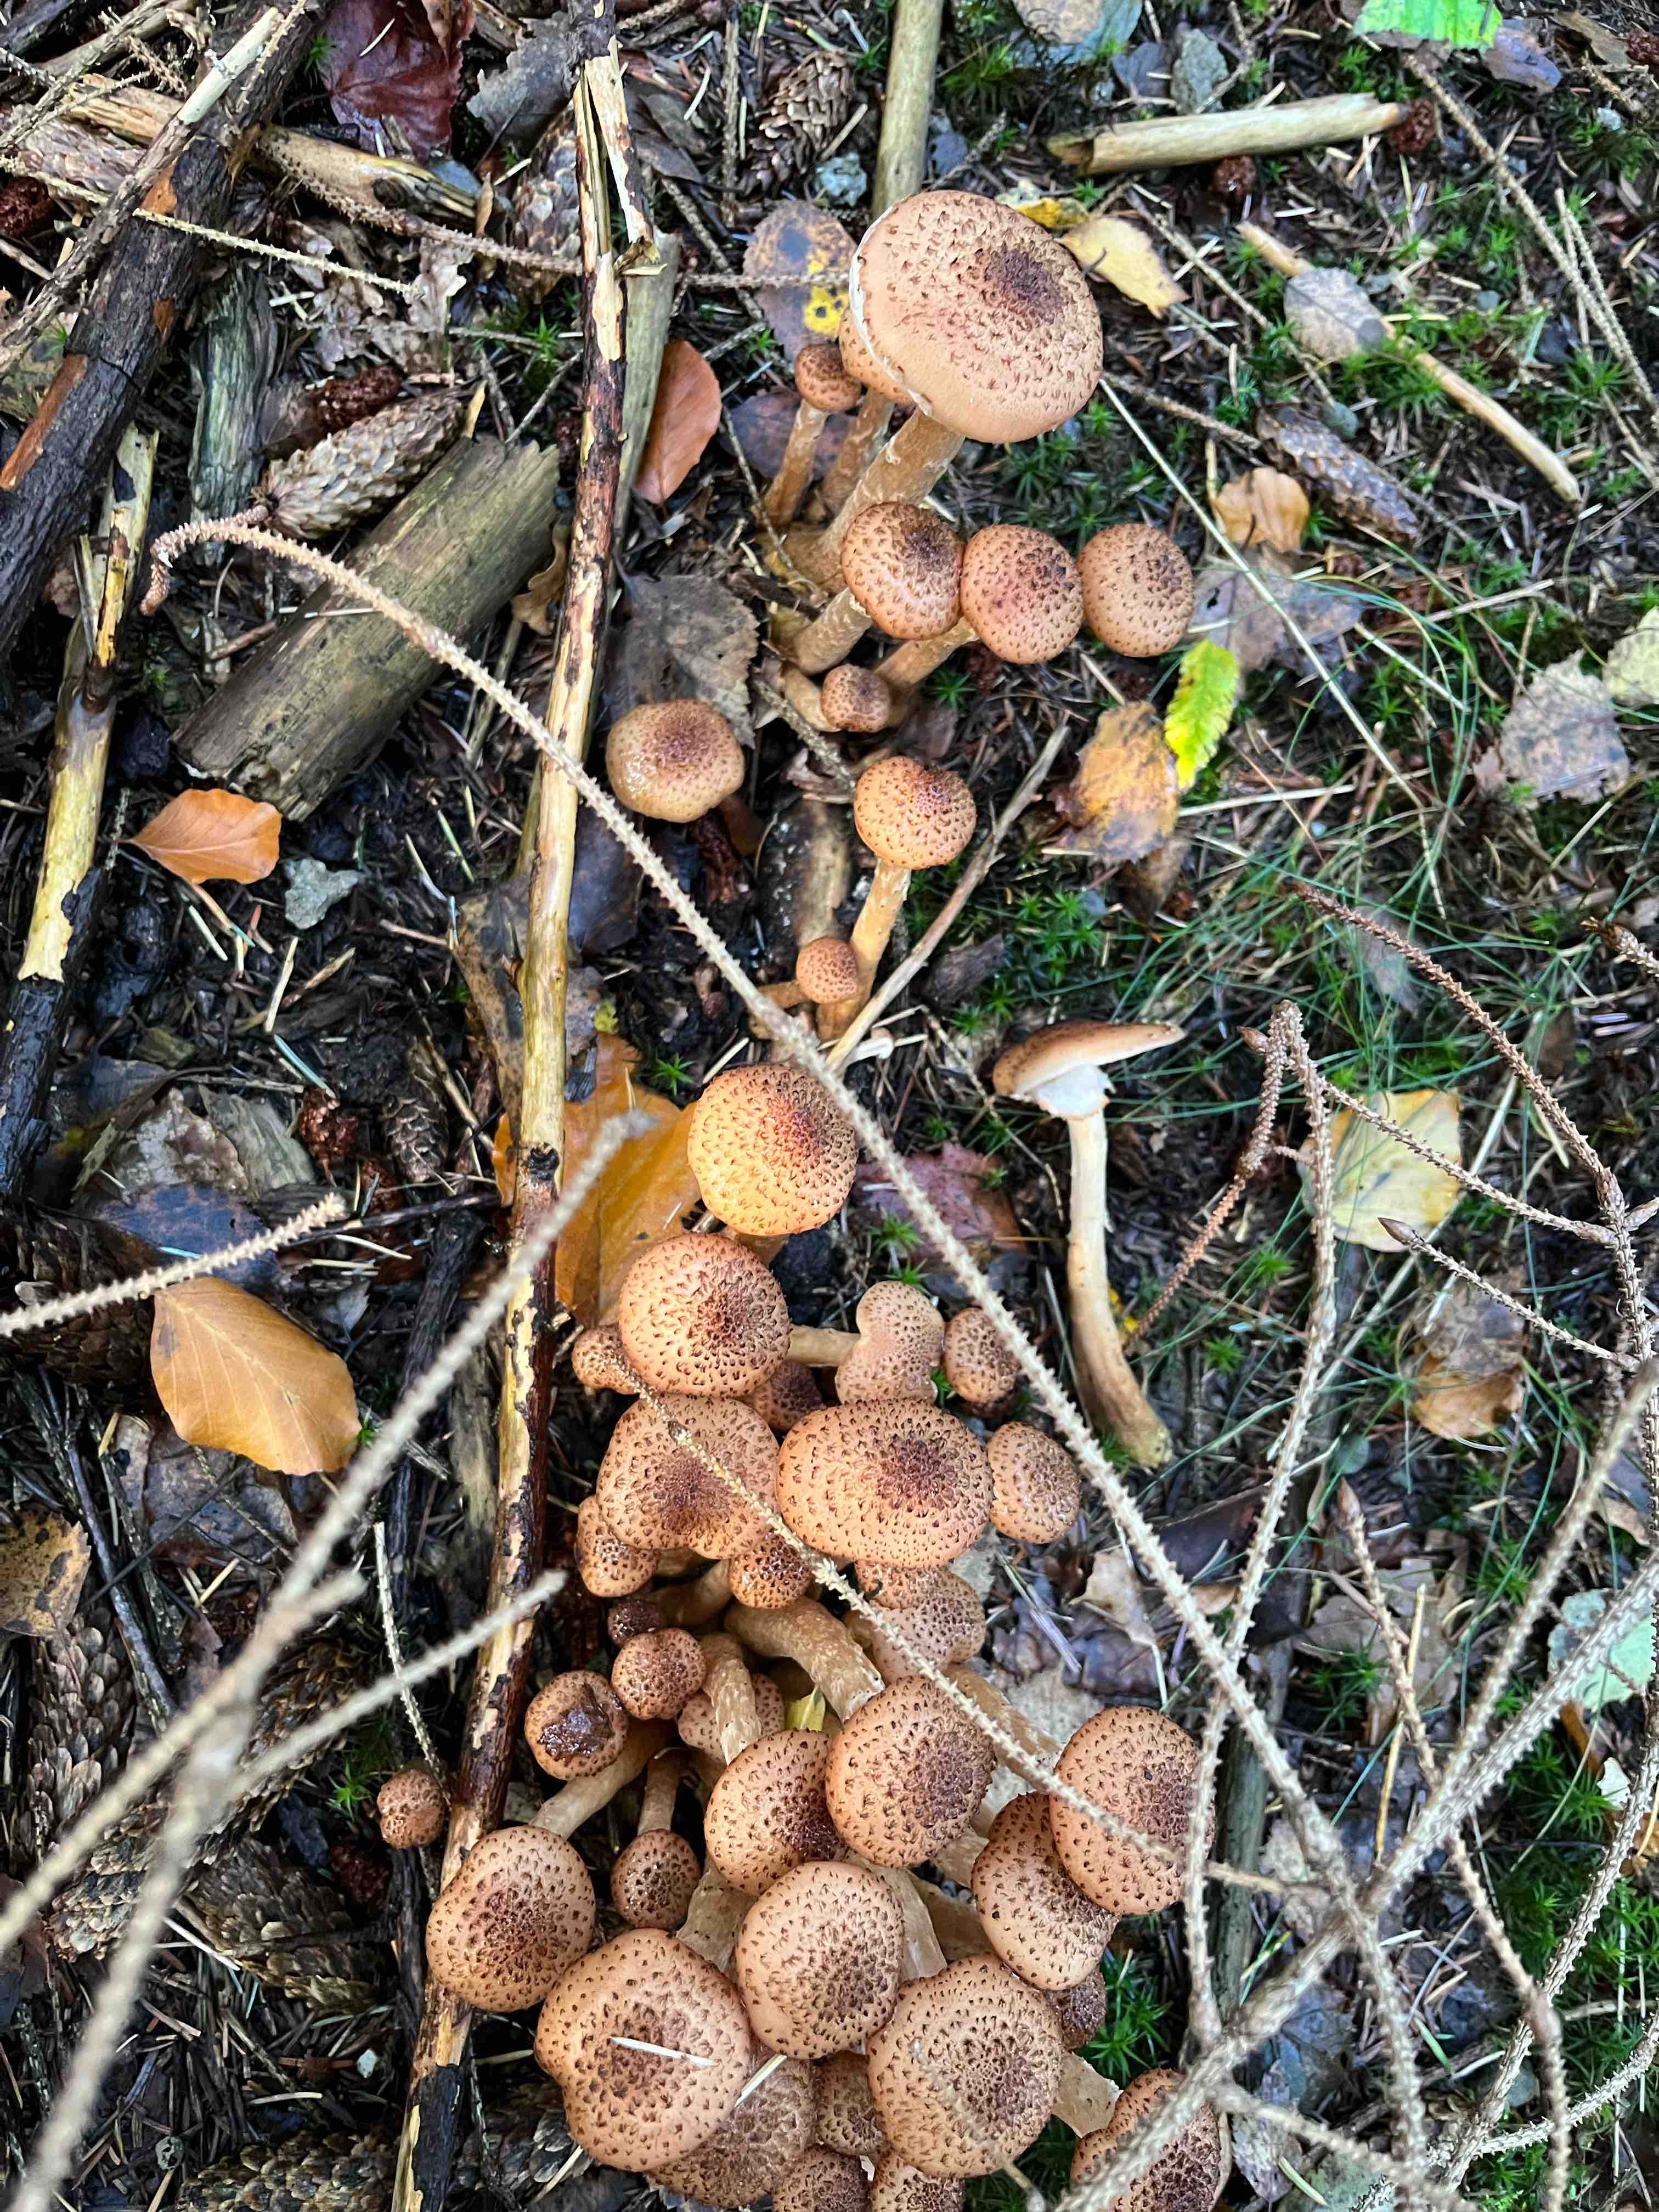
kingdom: Fungi
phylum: Basidiomycota
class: Agaricomycetes
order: Agaricales
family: Physalacriaceae
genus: Armillaria
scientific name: Armillaria ostoyae
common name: mørk honningsvamp
